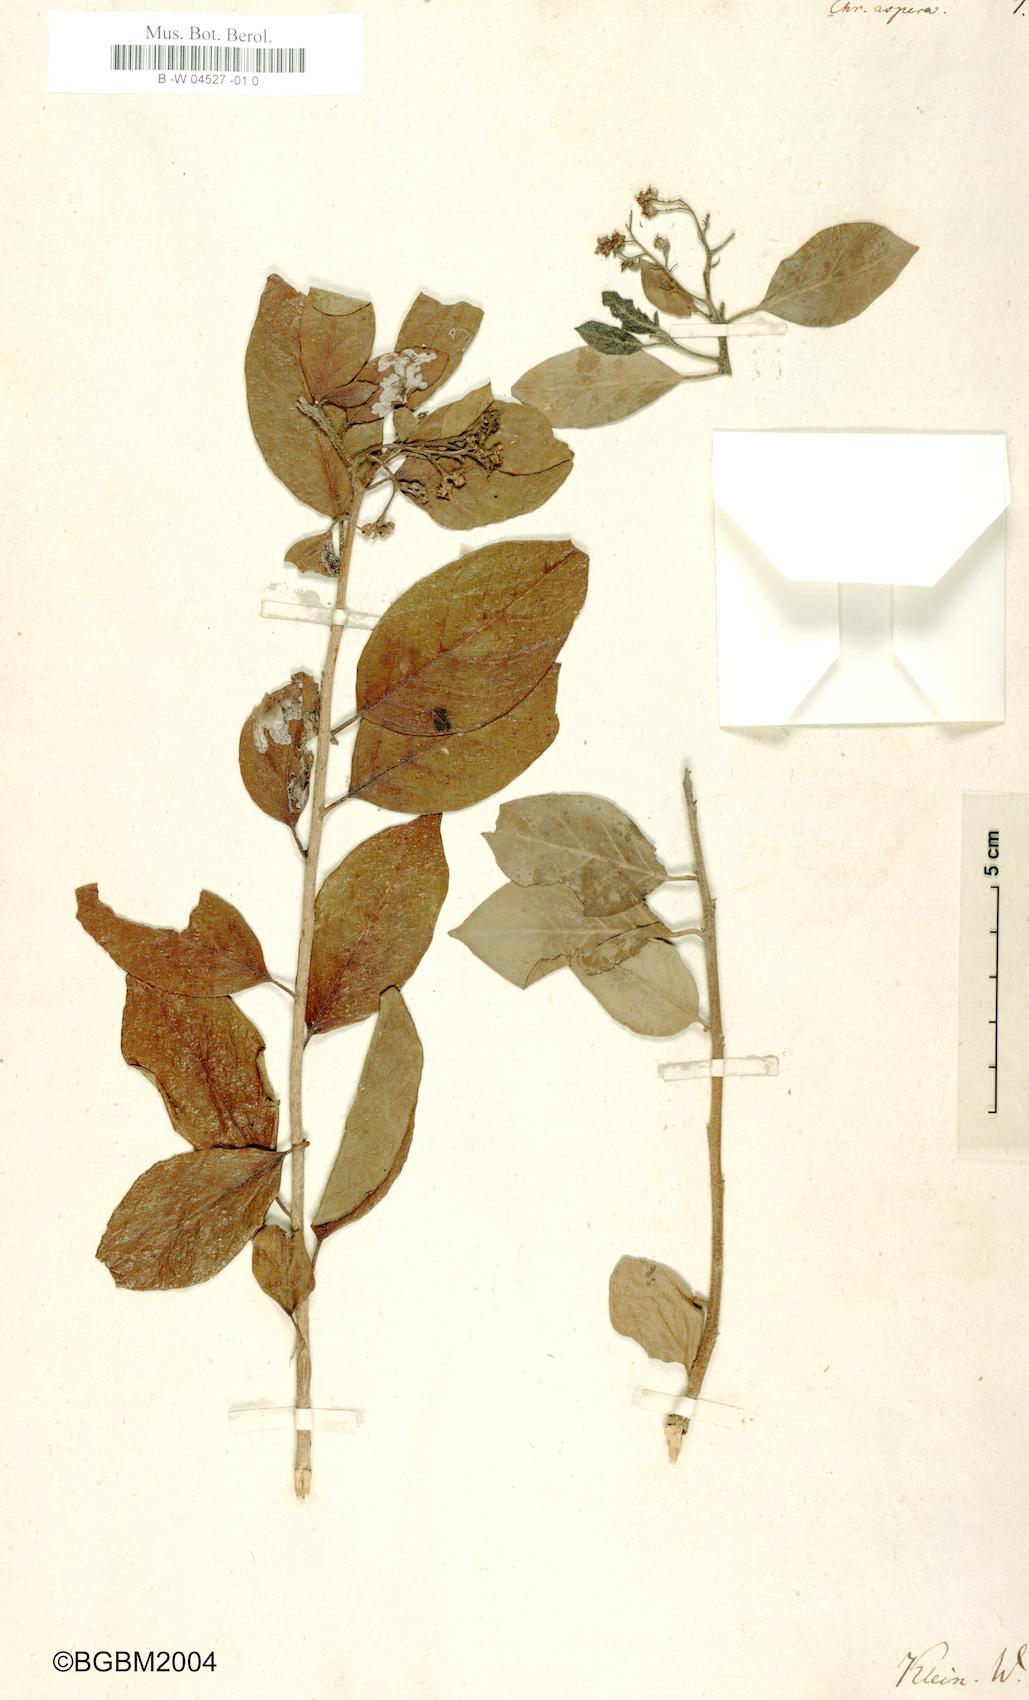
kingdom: Plantae
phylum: Tracheophyta
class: Magnoliopsida
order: Boraginales
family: Ehretiaceae
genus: Ehretia
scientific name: Ehretia aspera
